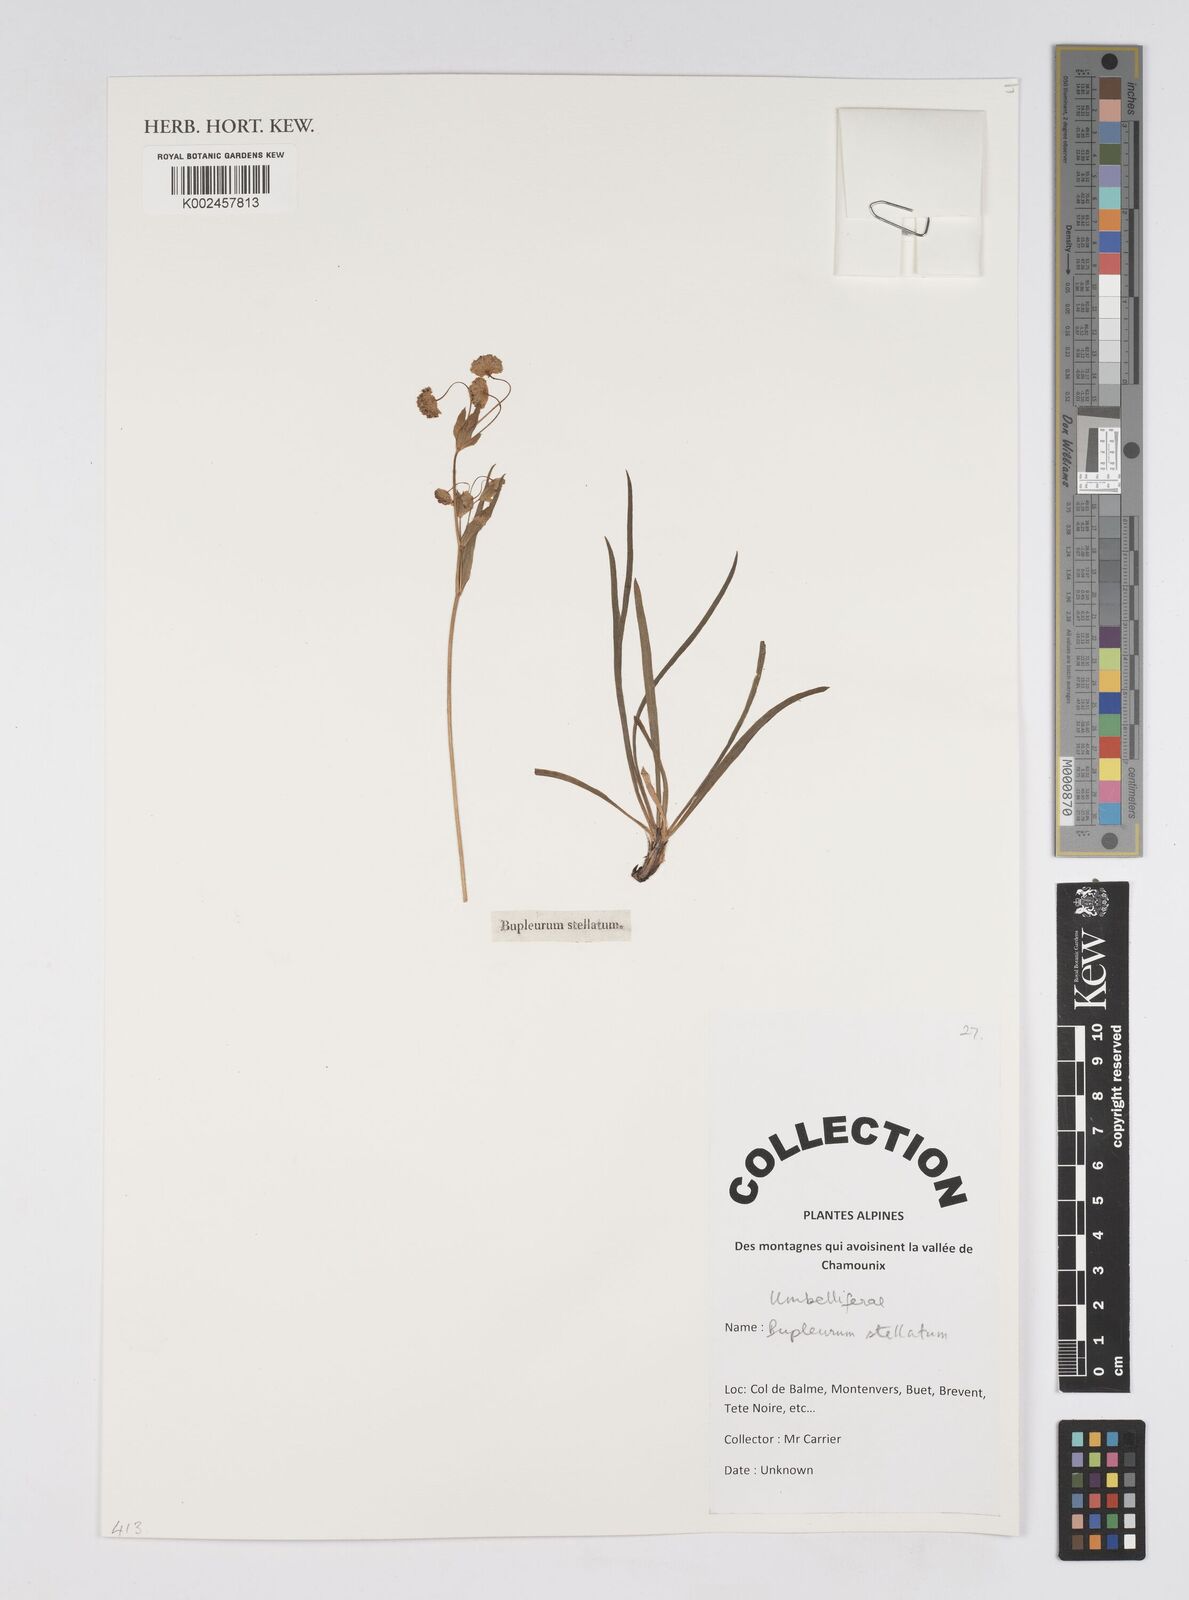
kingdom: Plantae
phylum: Tracheophyta
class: Magnoliopsida
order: Apiales
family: Apiaceae
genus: Bupleurum
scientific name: Bupleurum stellatum
